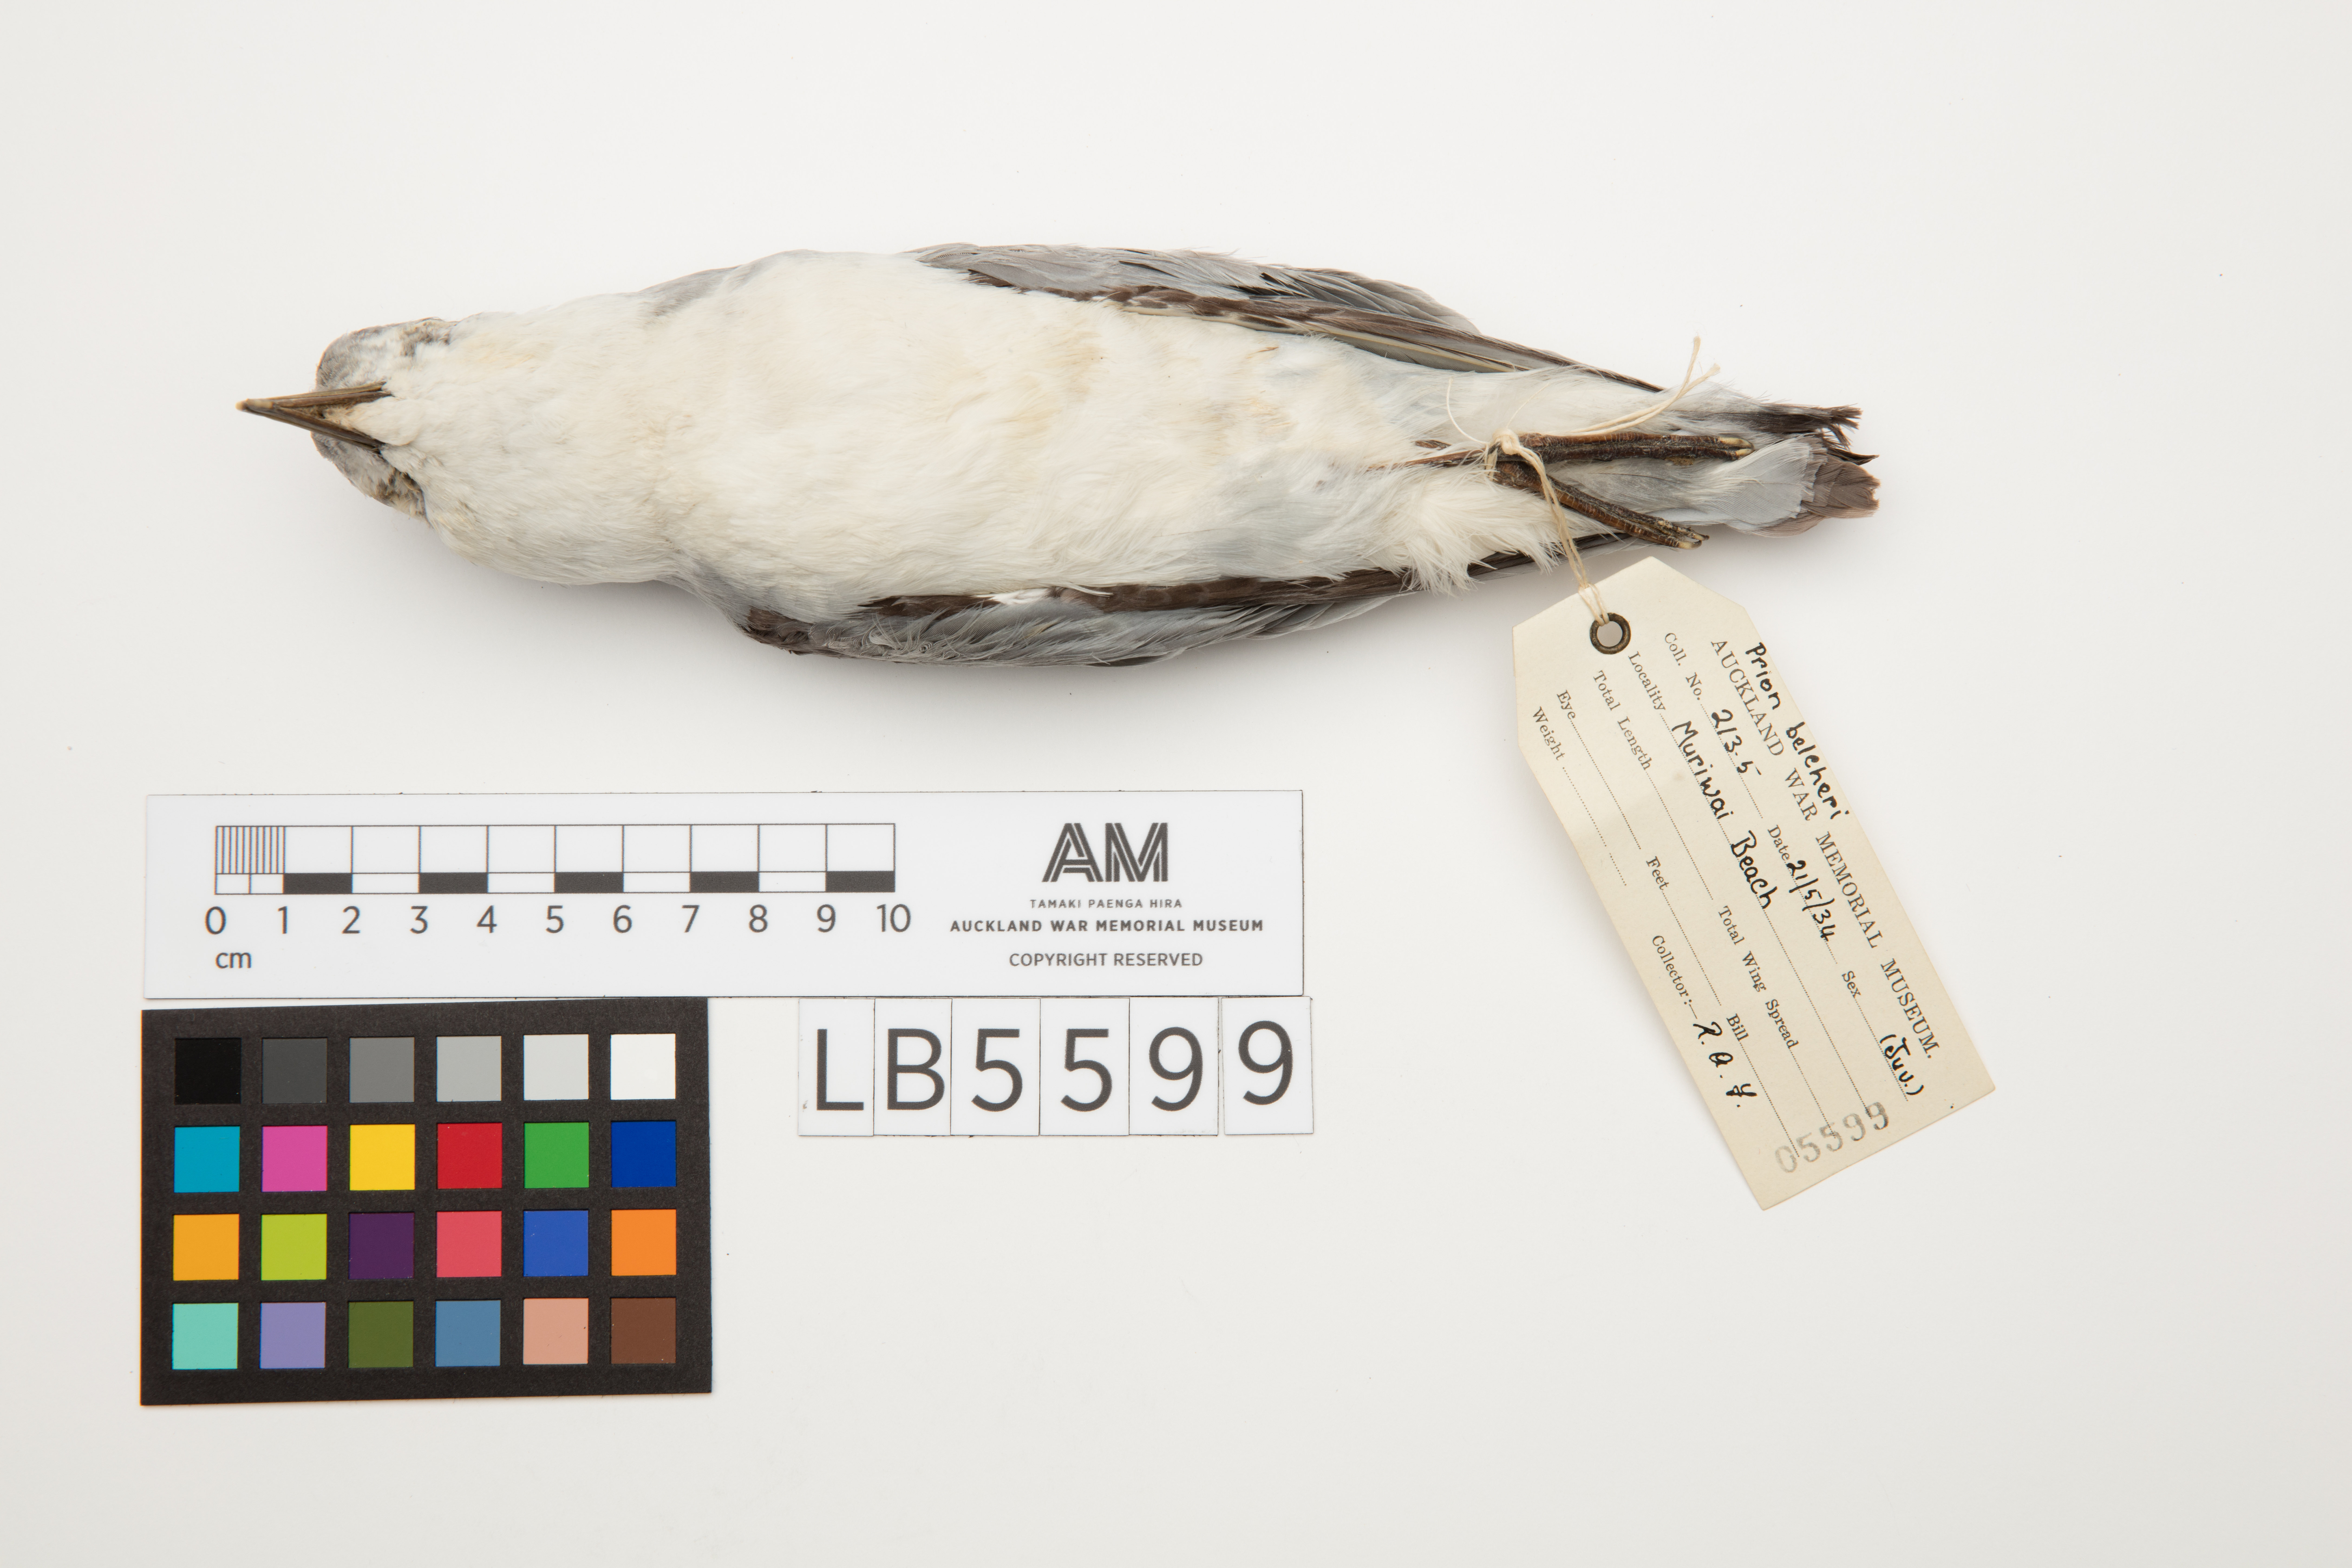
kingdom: Animalia
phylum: Chordata
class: Aves
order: Procellariiformes
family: Procellariidae
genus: Pachyptila
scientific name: Pachyptila belcheri
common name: Slender-billed prion
